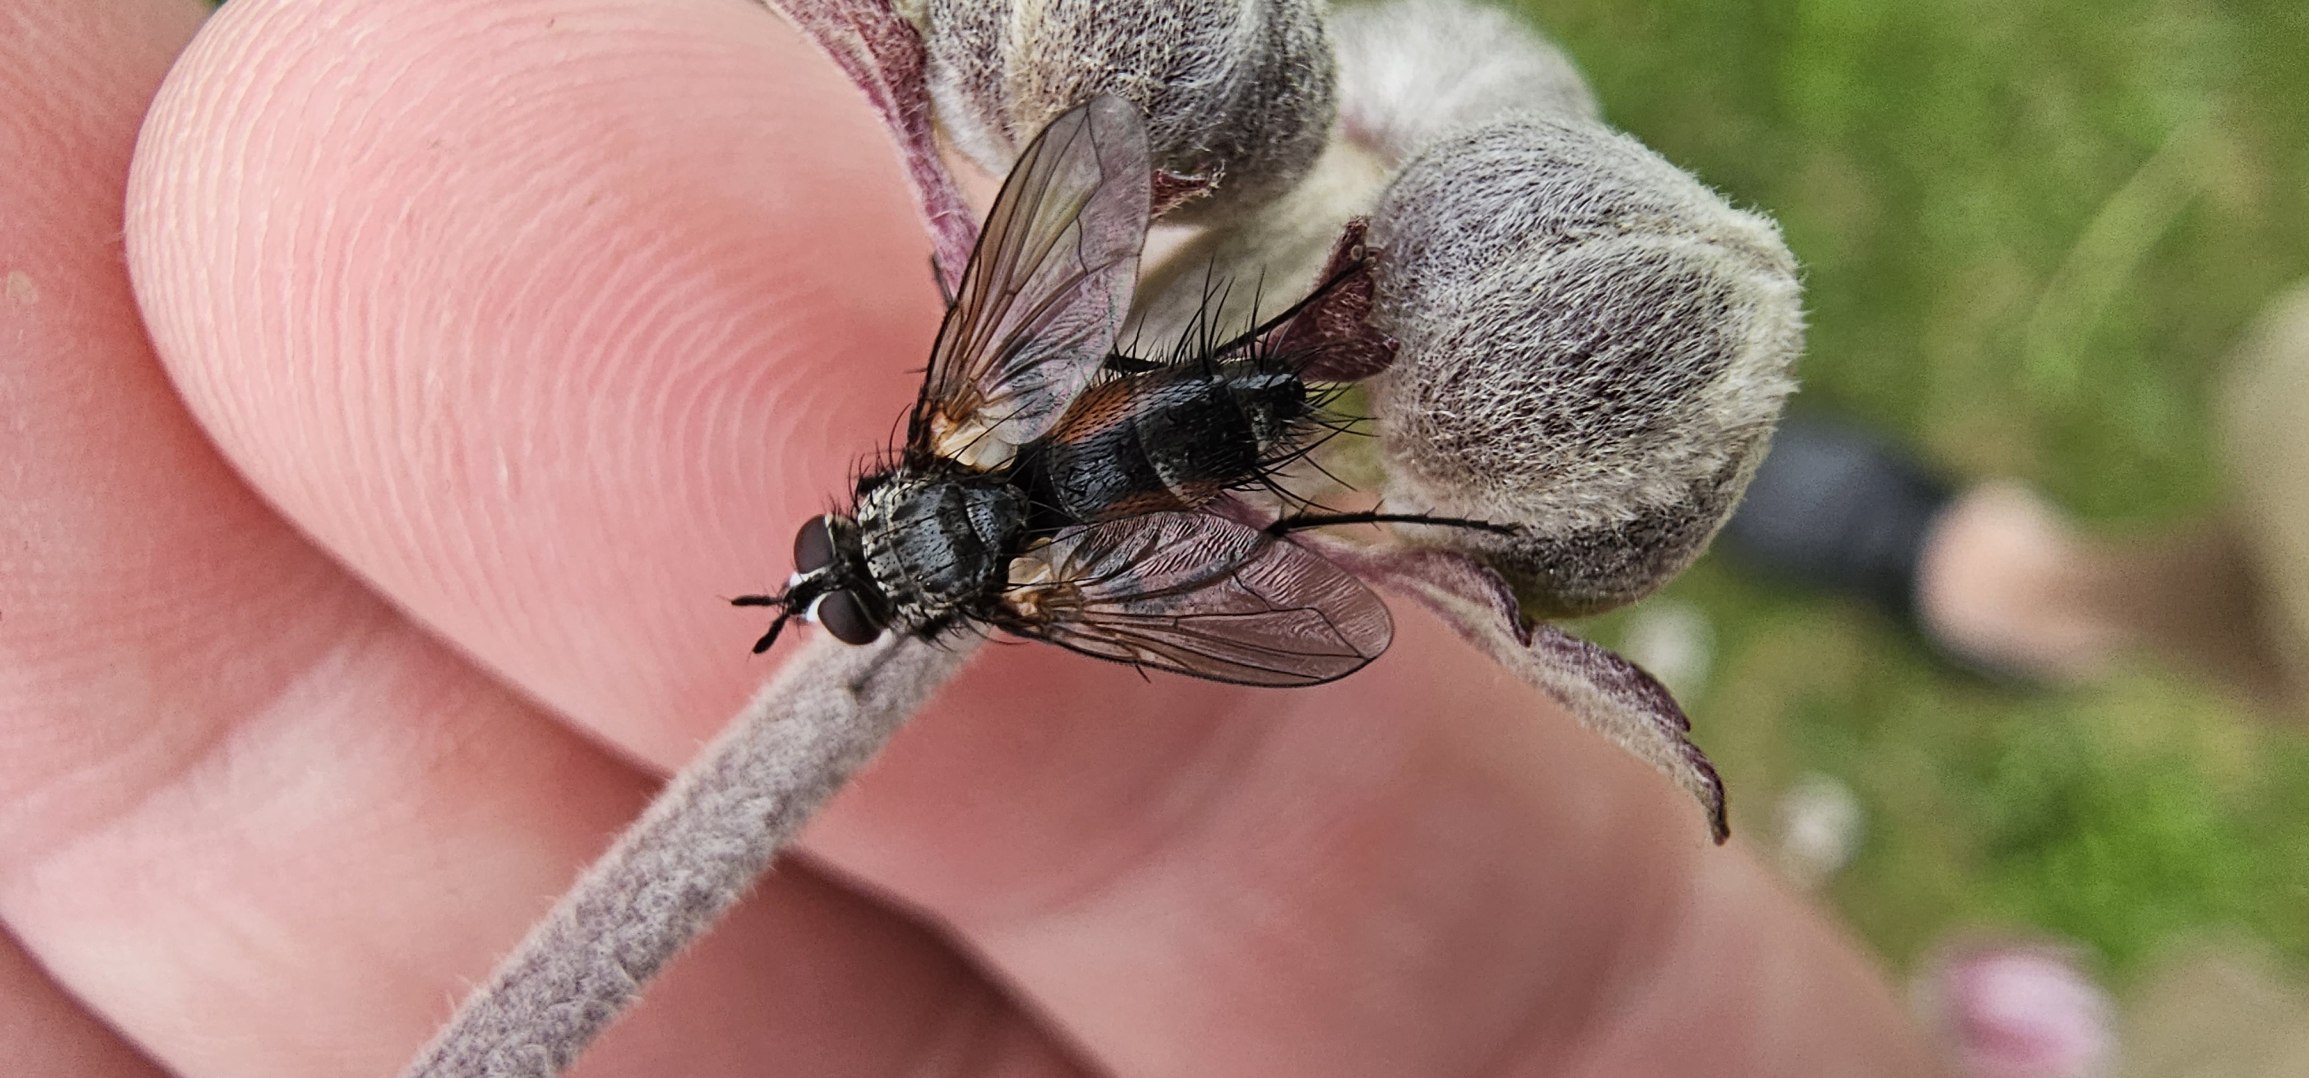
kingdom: Animalia
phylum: Arthropoda
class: Insecta
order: Diptera
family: Tachinidae
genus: Eriothrix
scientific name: Eriothrix rufomaculatus
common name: Rød snylteflue
